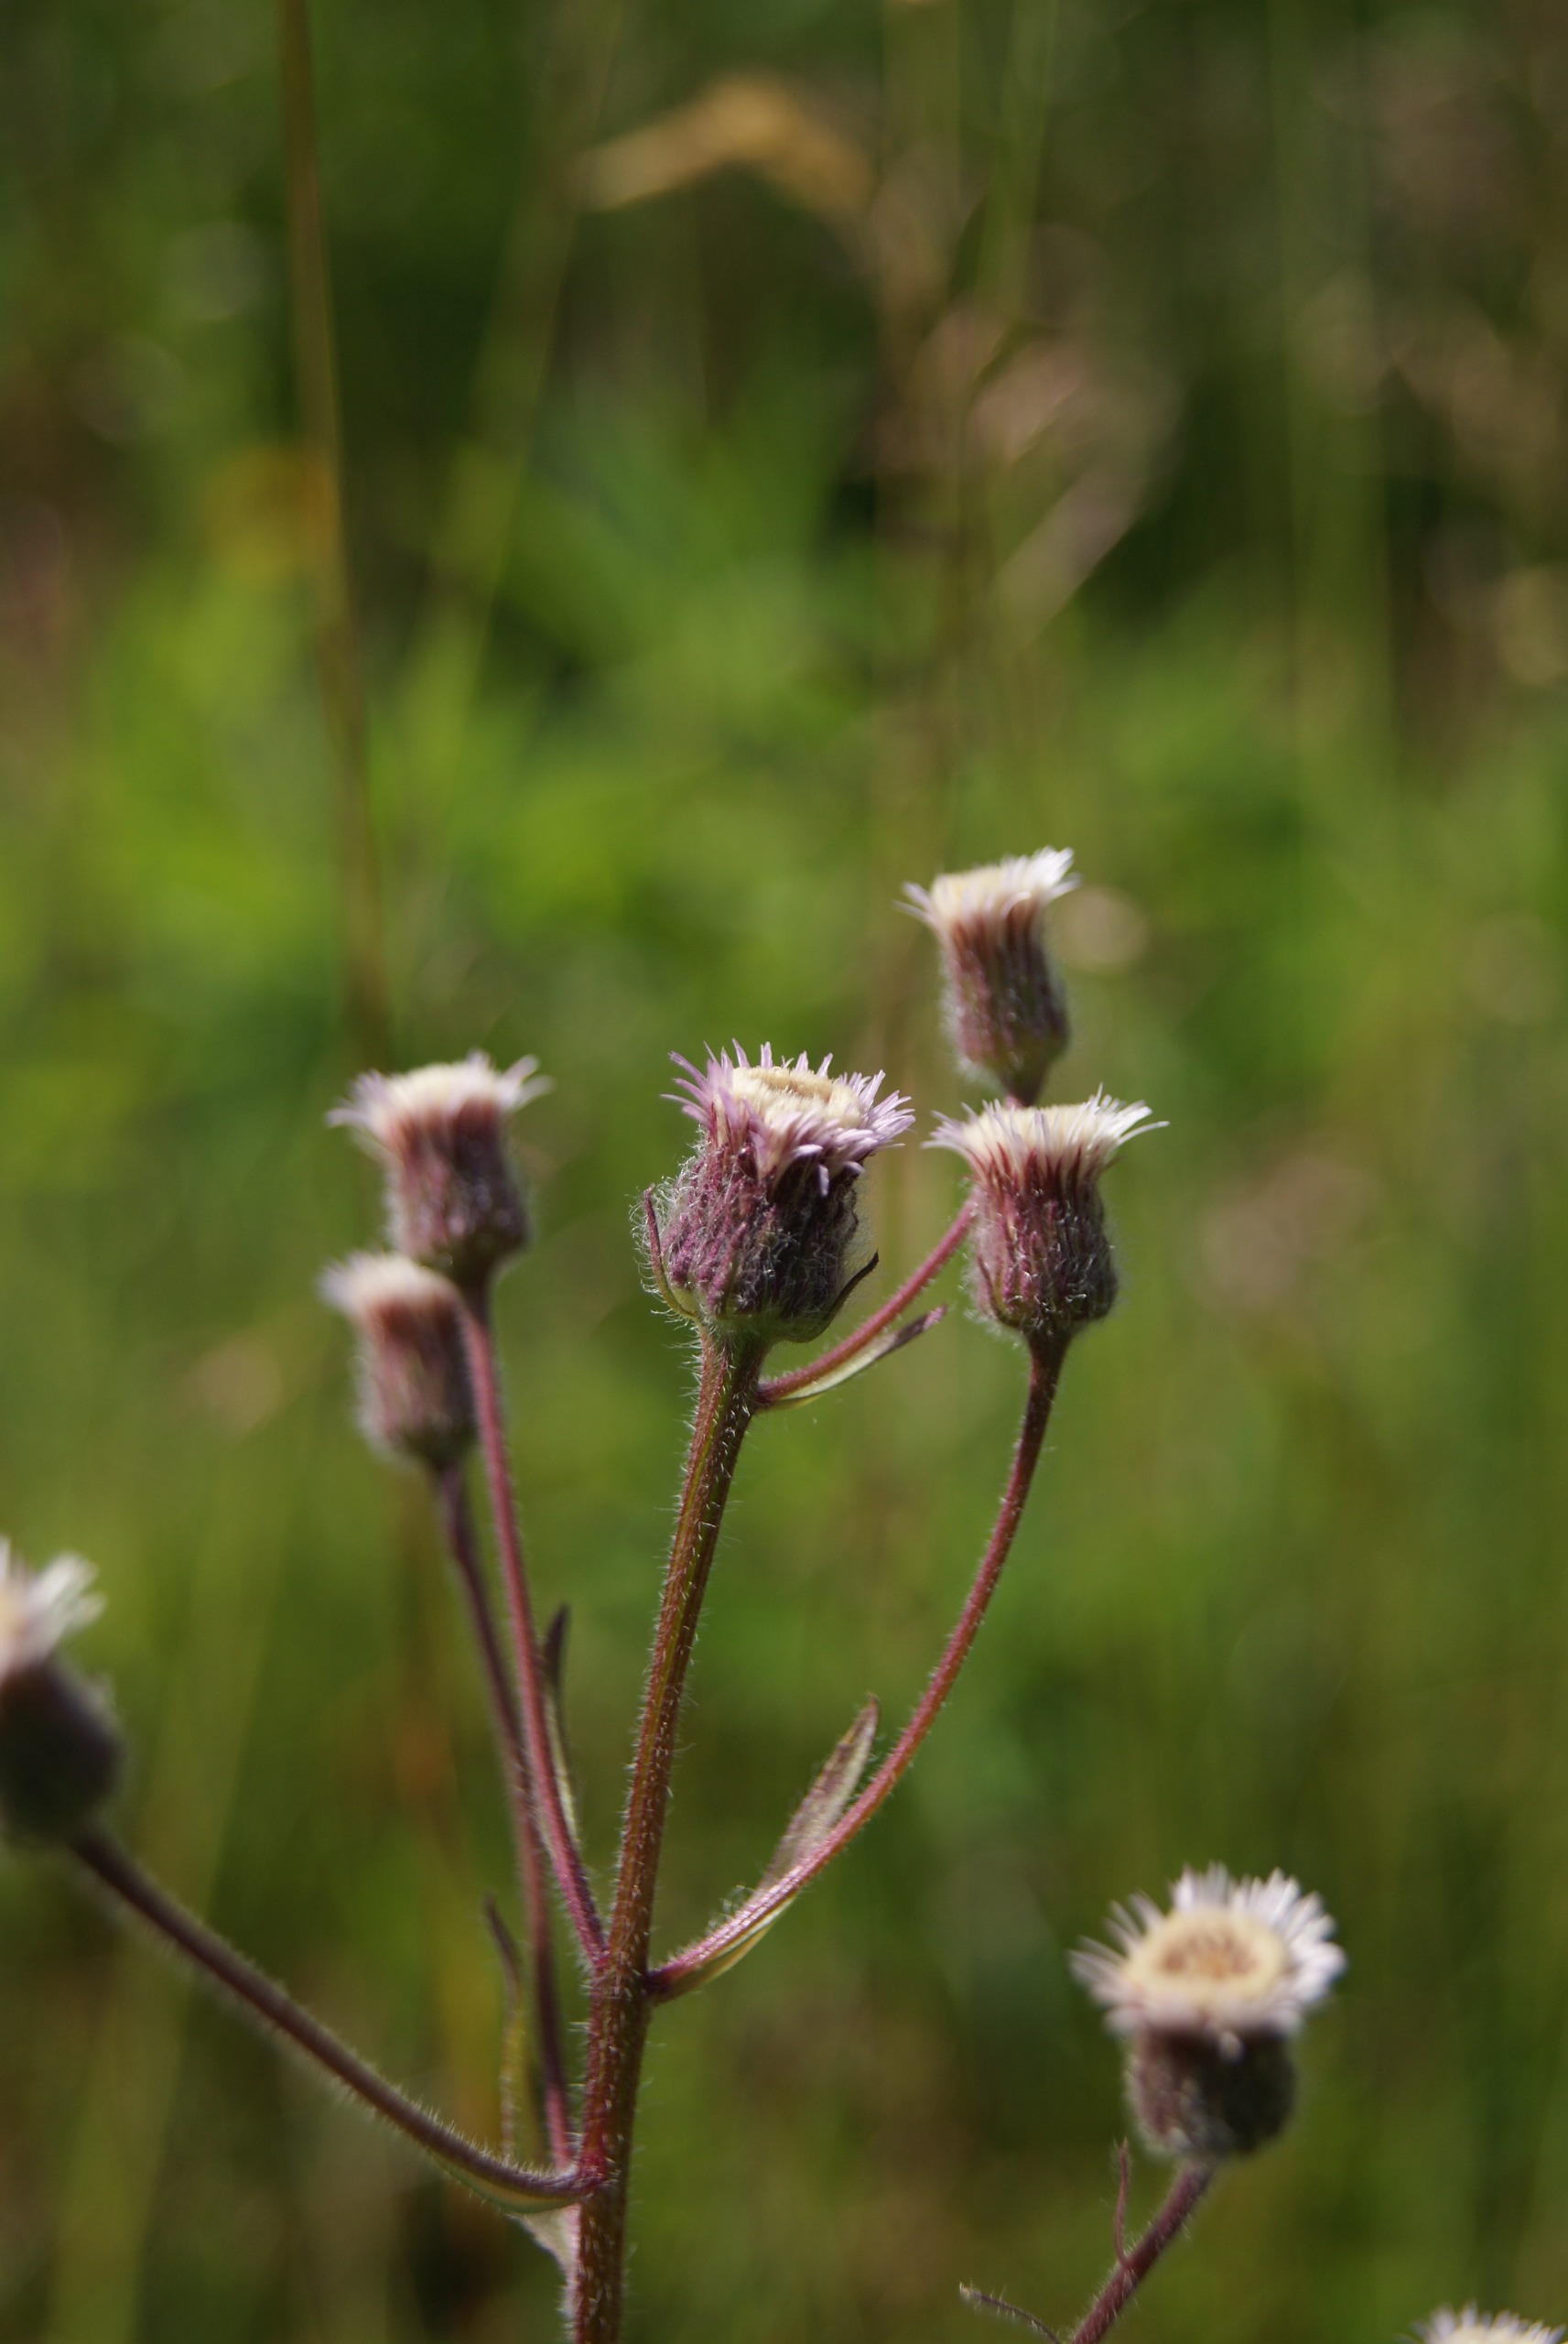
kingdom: Plantae
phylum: Tracheophyta
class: Magnoliopsida
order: Asterales
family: Asteraceae
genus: Erigeron
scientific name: Erigeron acris
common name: Bitter bakkestjerne
